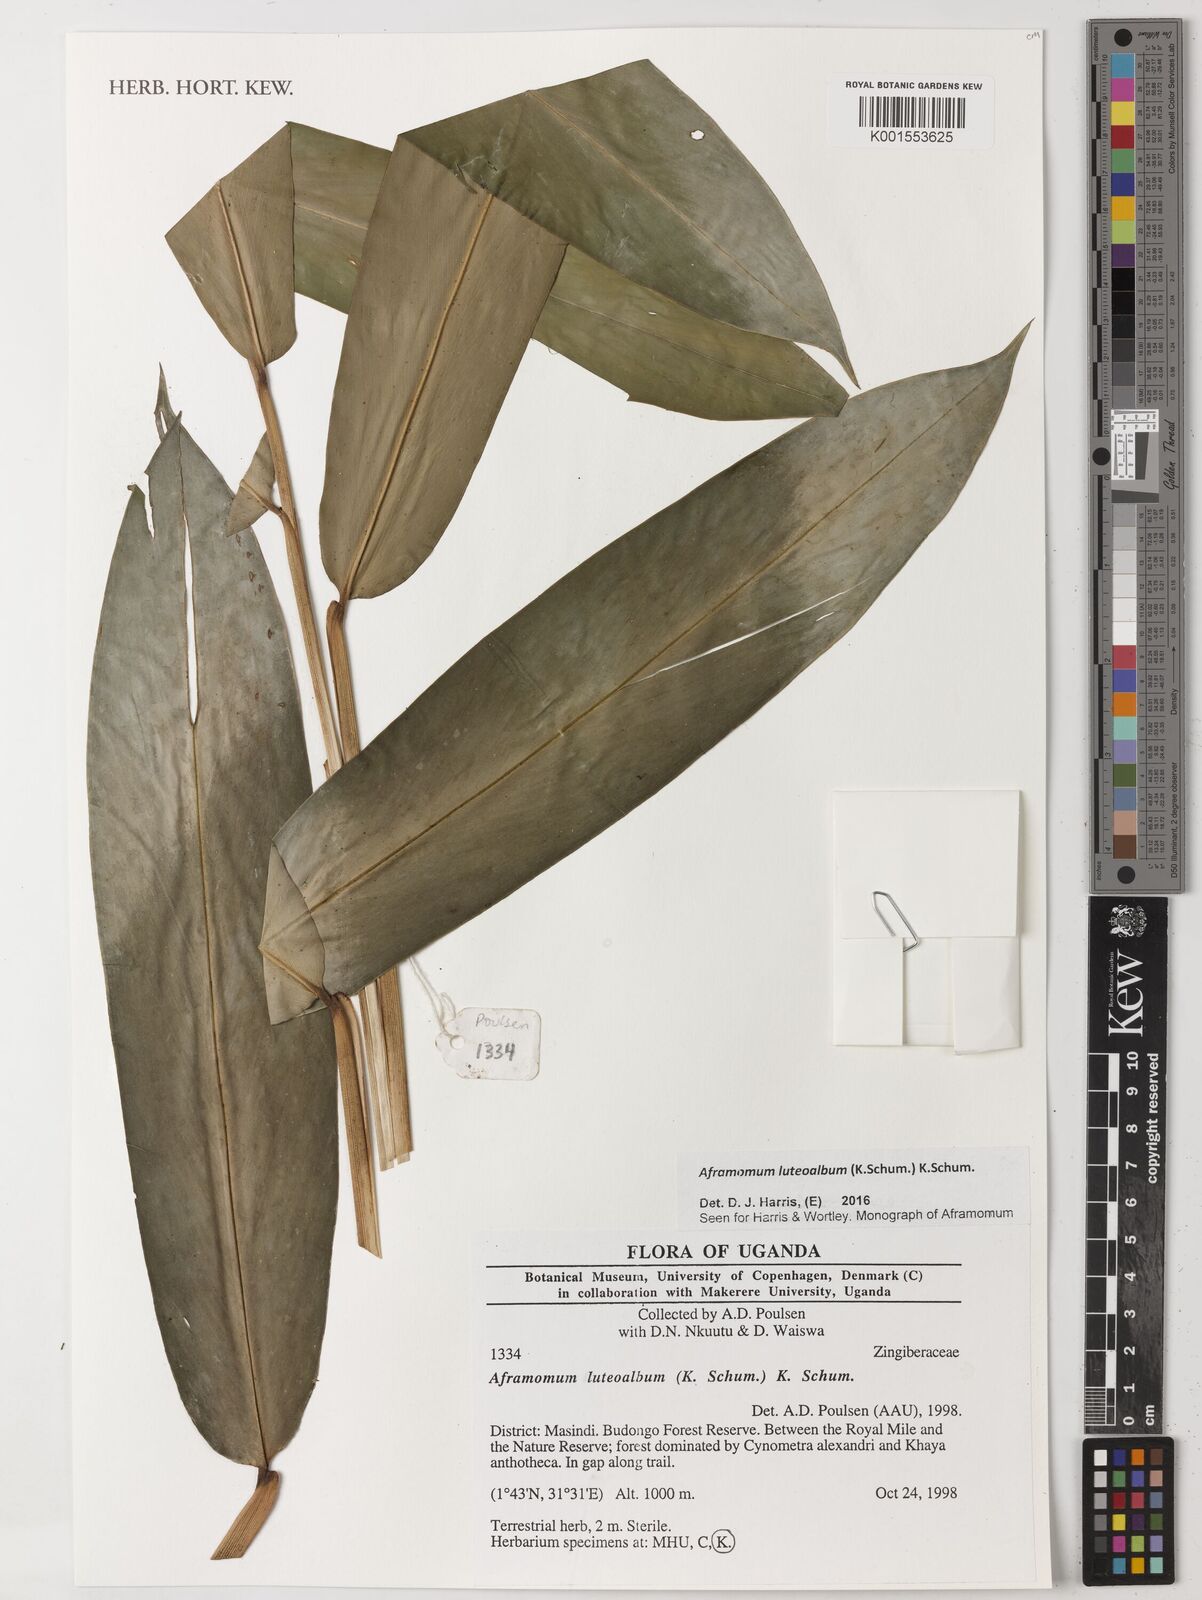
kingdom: Plantae
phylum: Tracheophyta
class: Liliopsida
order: Zingiberales
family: Zingiberaceae
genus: Aframomum
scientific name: Aframomum luteoalbum
